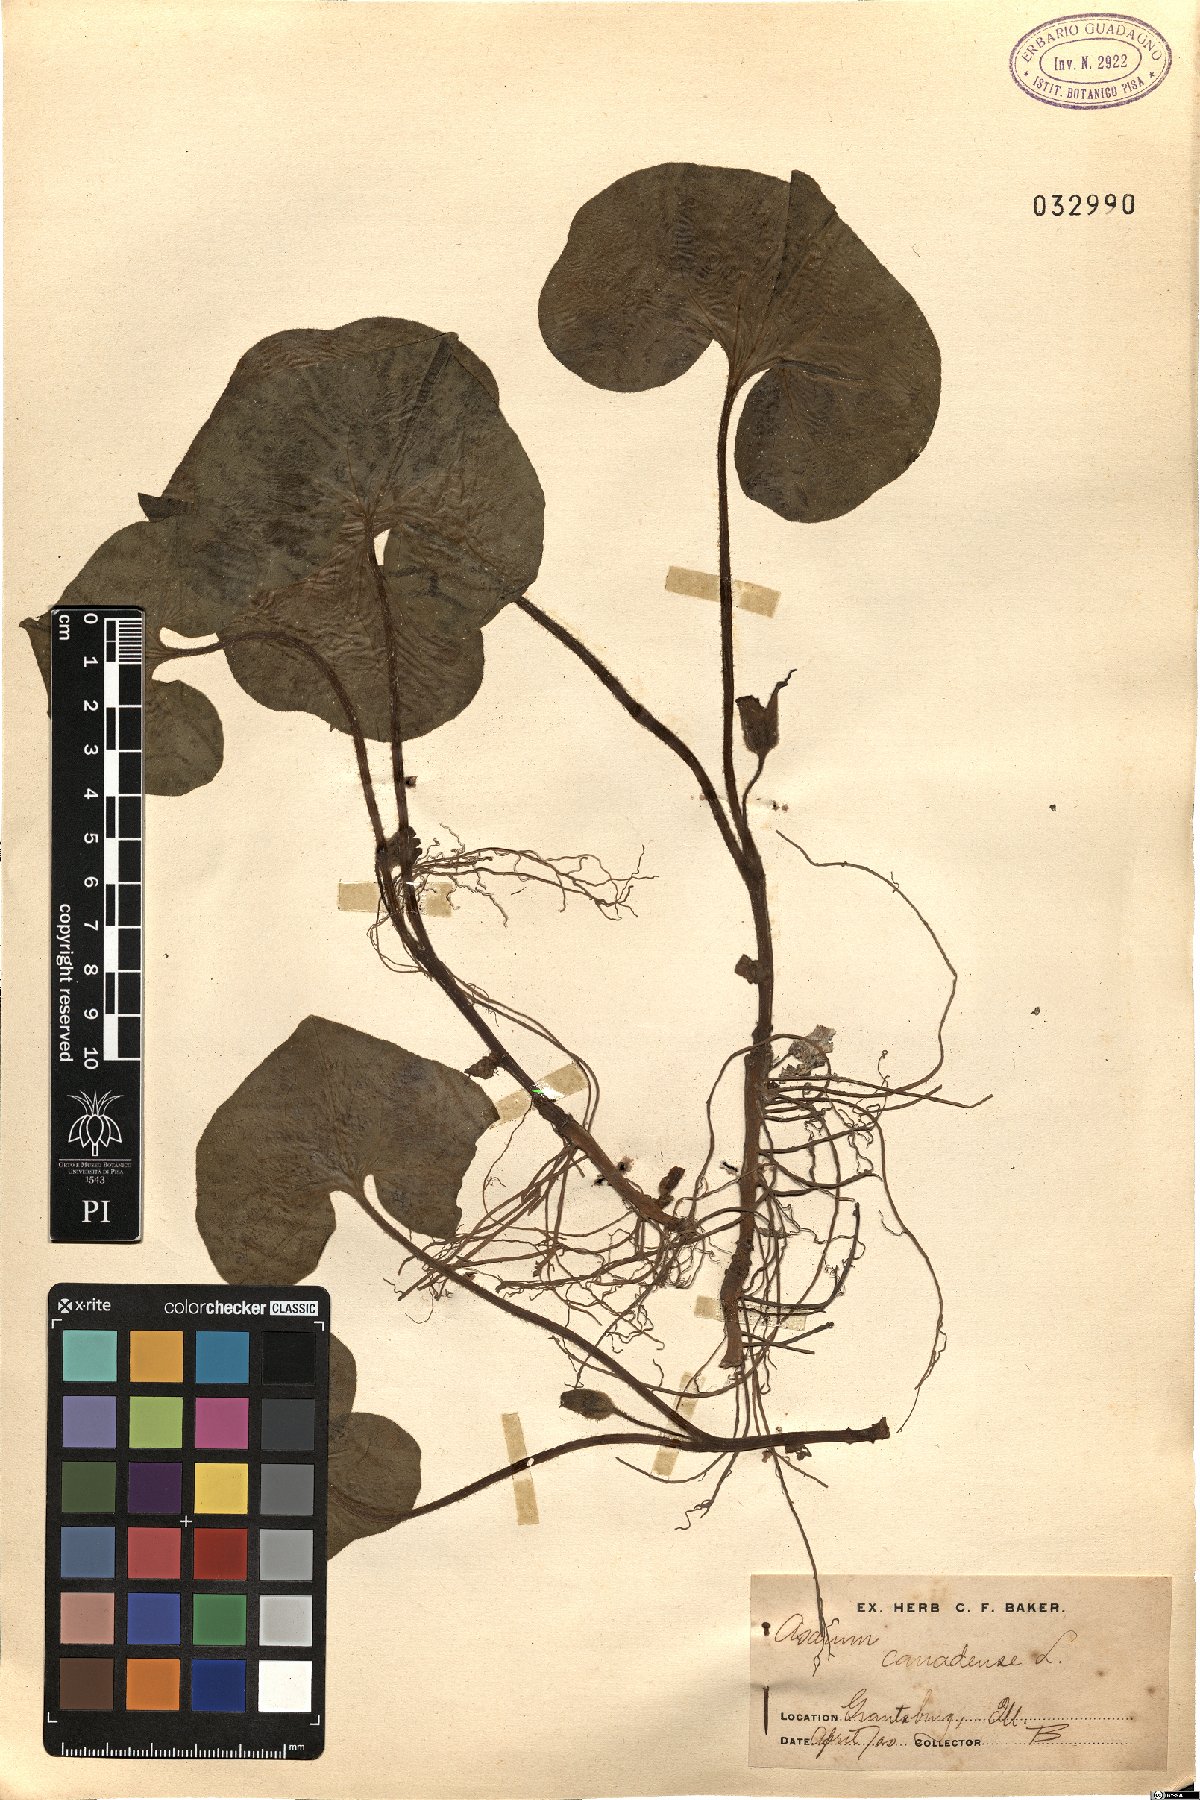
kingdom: Plantae
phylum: Tracheophyta
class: Magnoliopsida
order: Piperales
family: Aristolochiaceae
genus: Asarum
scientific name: Asarum canadense
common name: Wild ginger
